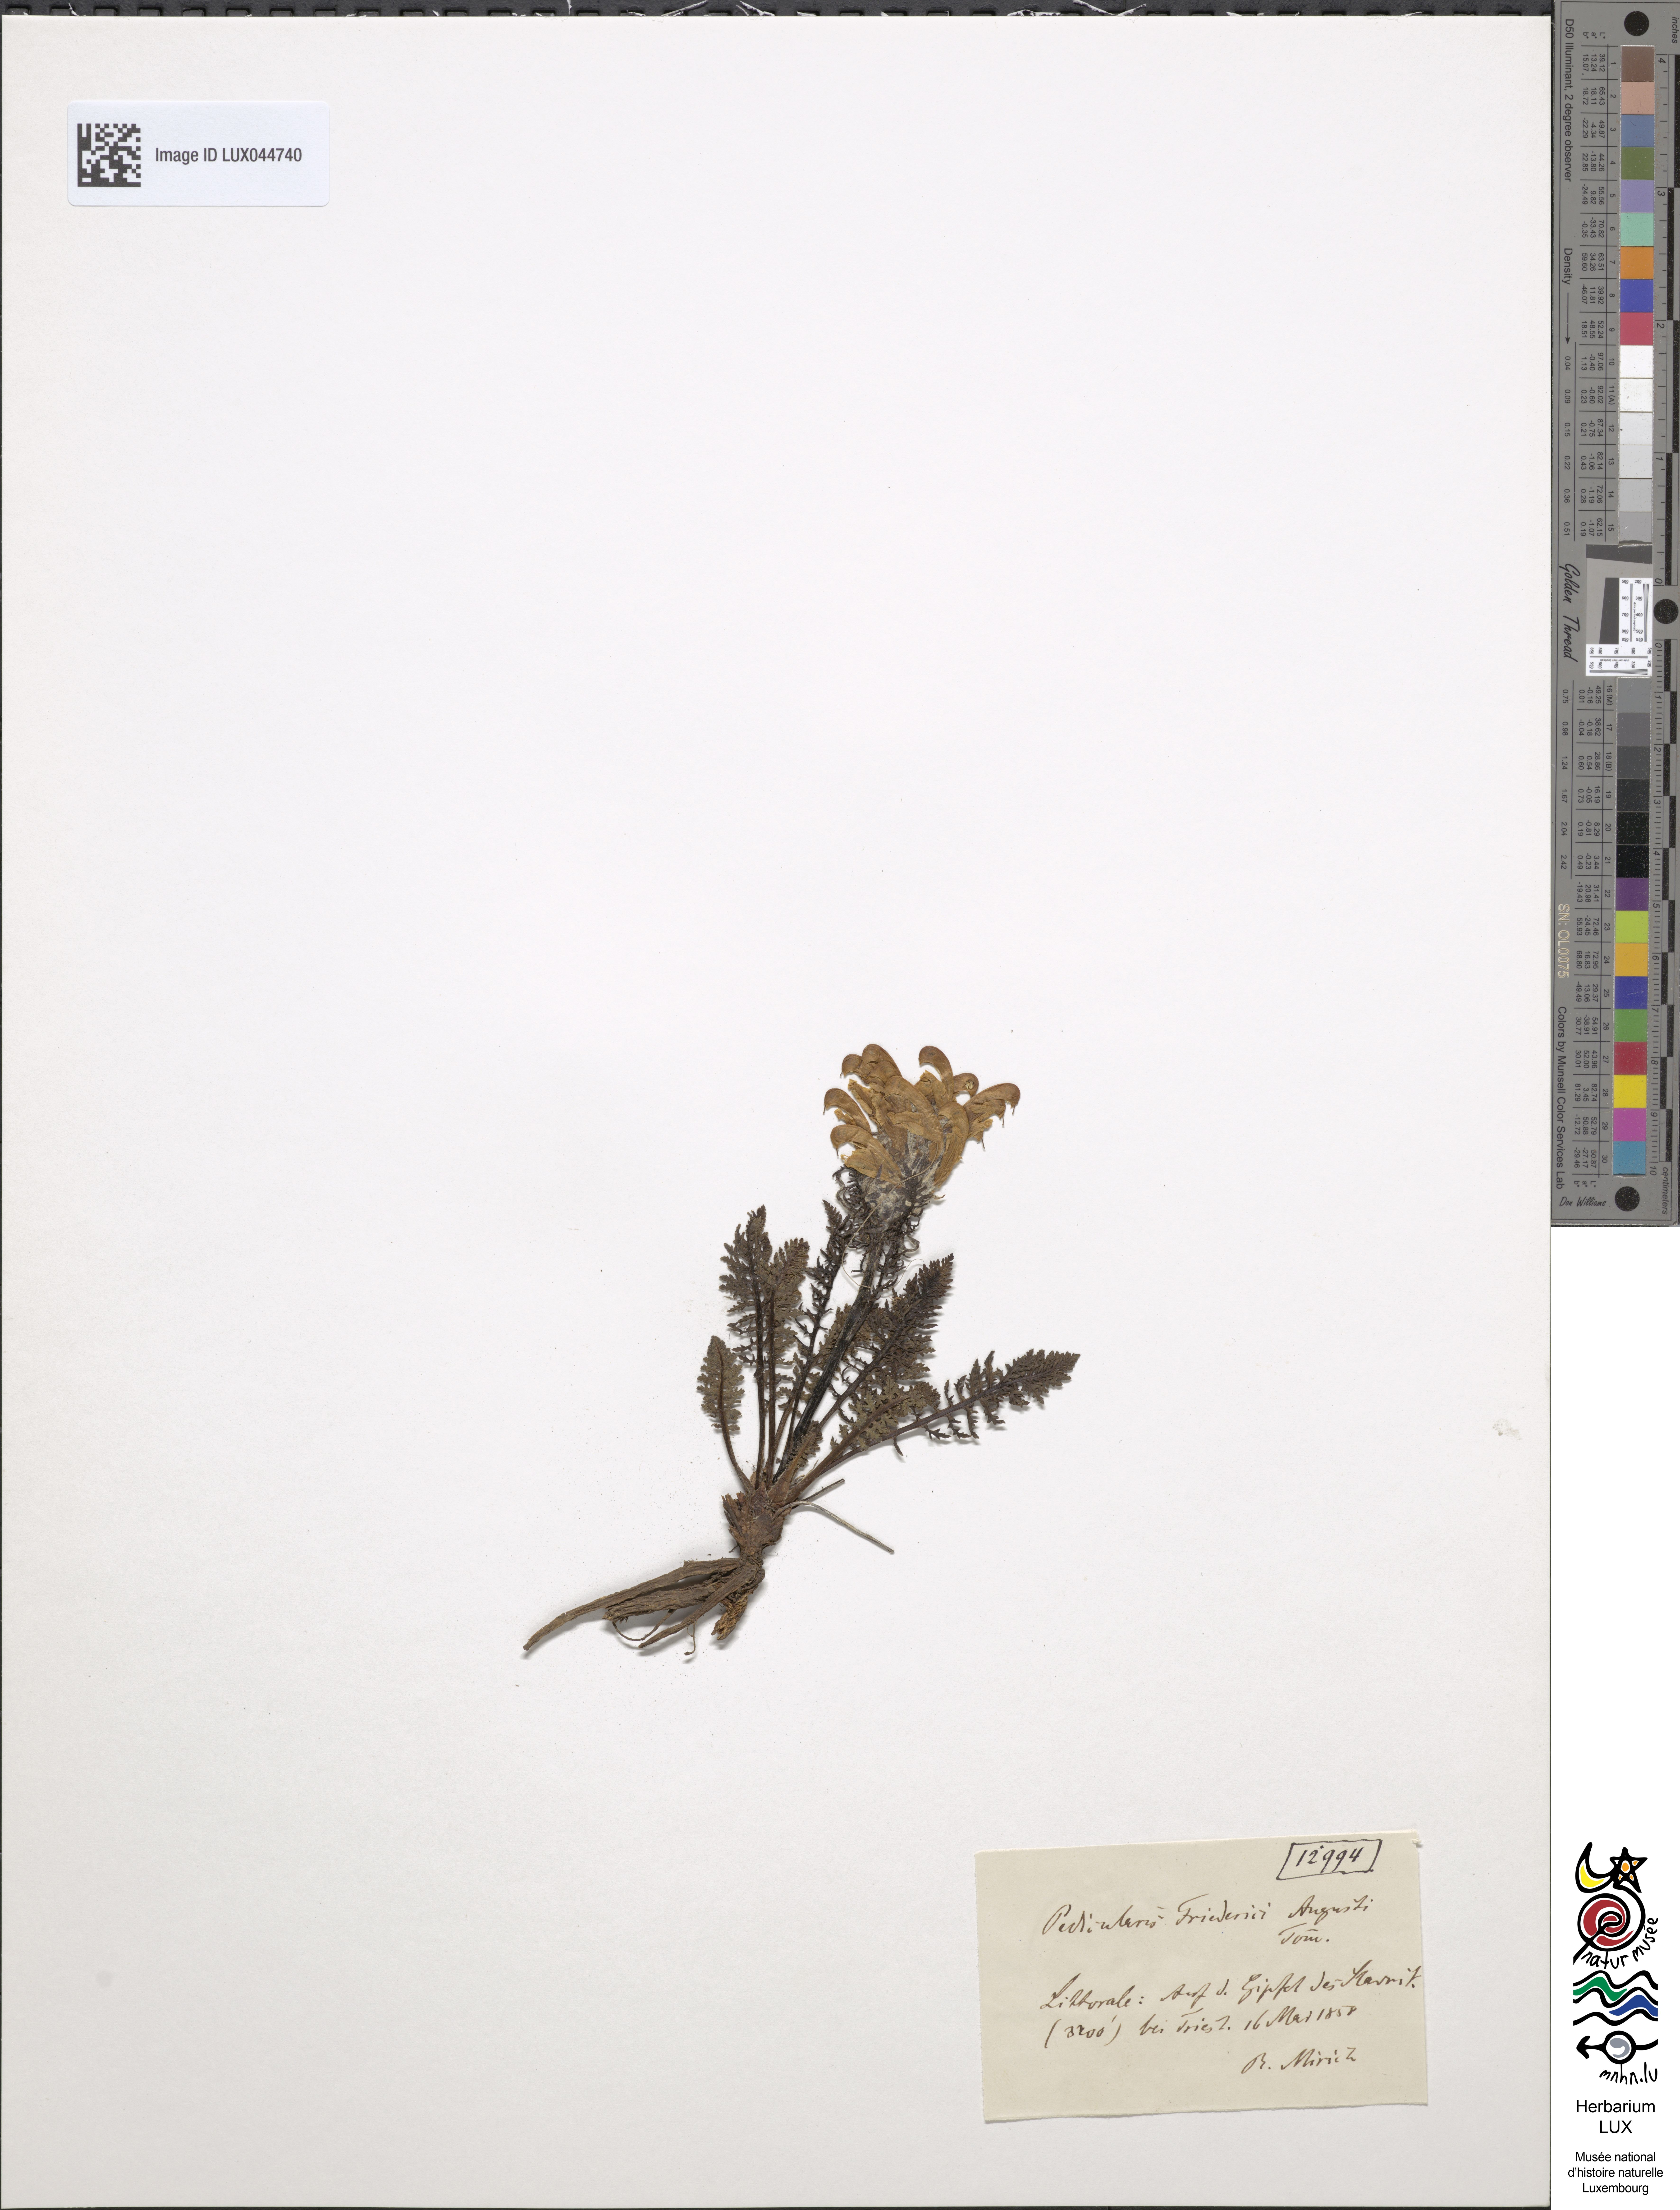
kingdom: Plantae
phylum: Tracheophyta
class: Magnoliopsida
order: Lamiales
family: Orobanchaceae
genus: Pedicularis
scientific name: Pedicularis friderici-augusti
